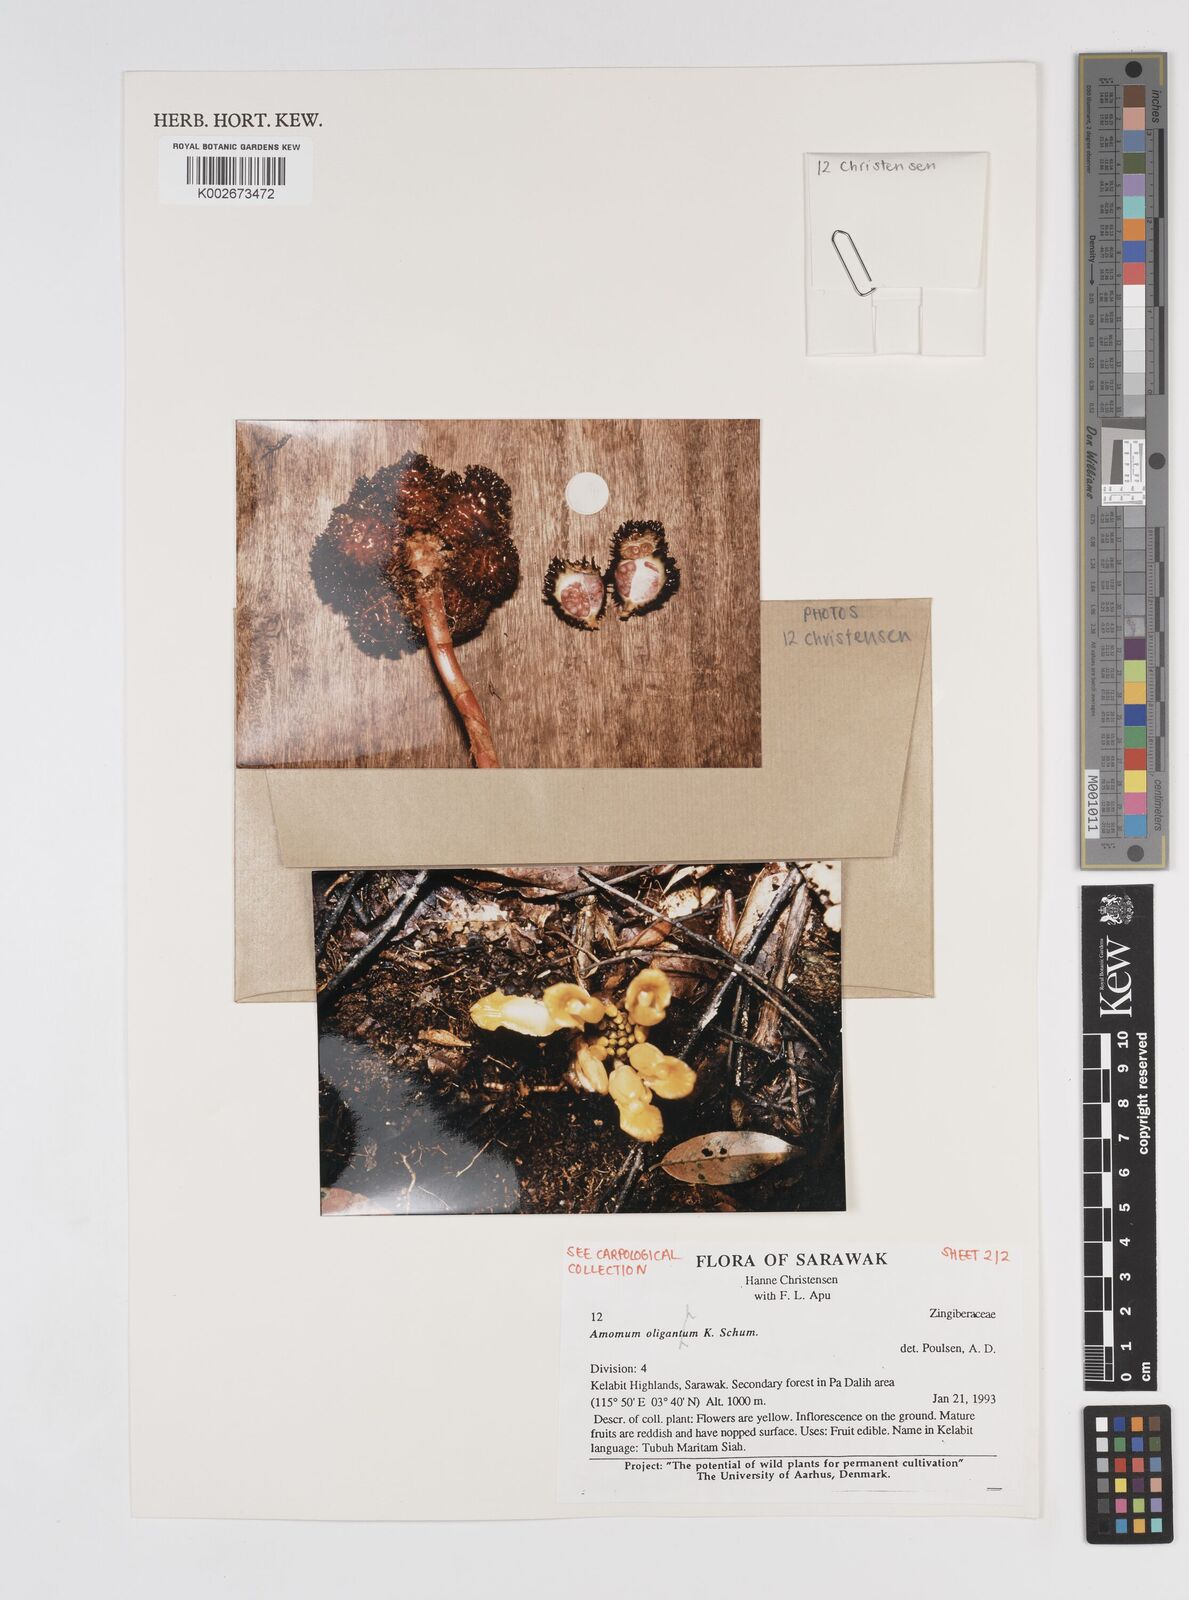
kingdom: Plantae
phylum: Tracheophyta
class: Liliopsida
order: Zingiberales
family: Zingiberaceae
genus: Meistera
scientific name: Meistera oligantha
